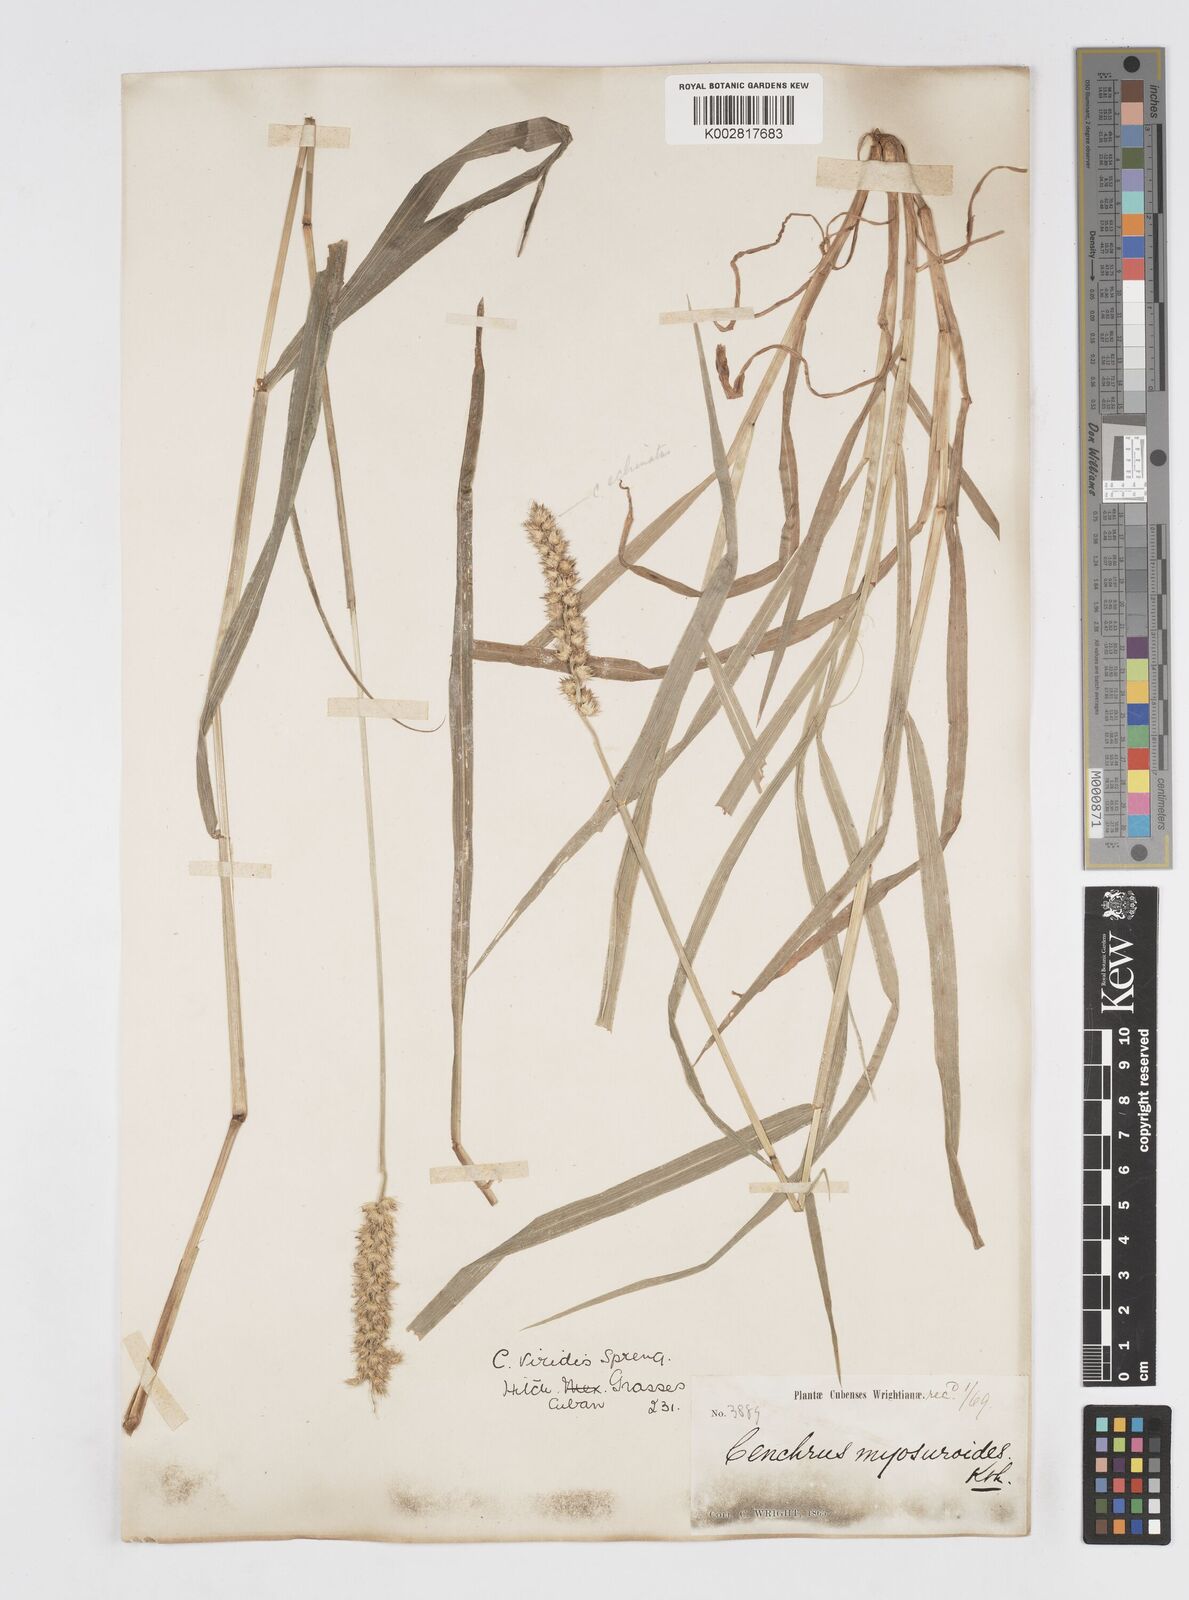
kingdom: Plantae
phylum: Tracheophyta
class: Liliopsida
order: Poales
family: Poaceae
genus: Cenchrus
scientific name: Cenchrus
